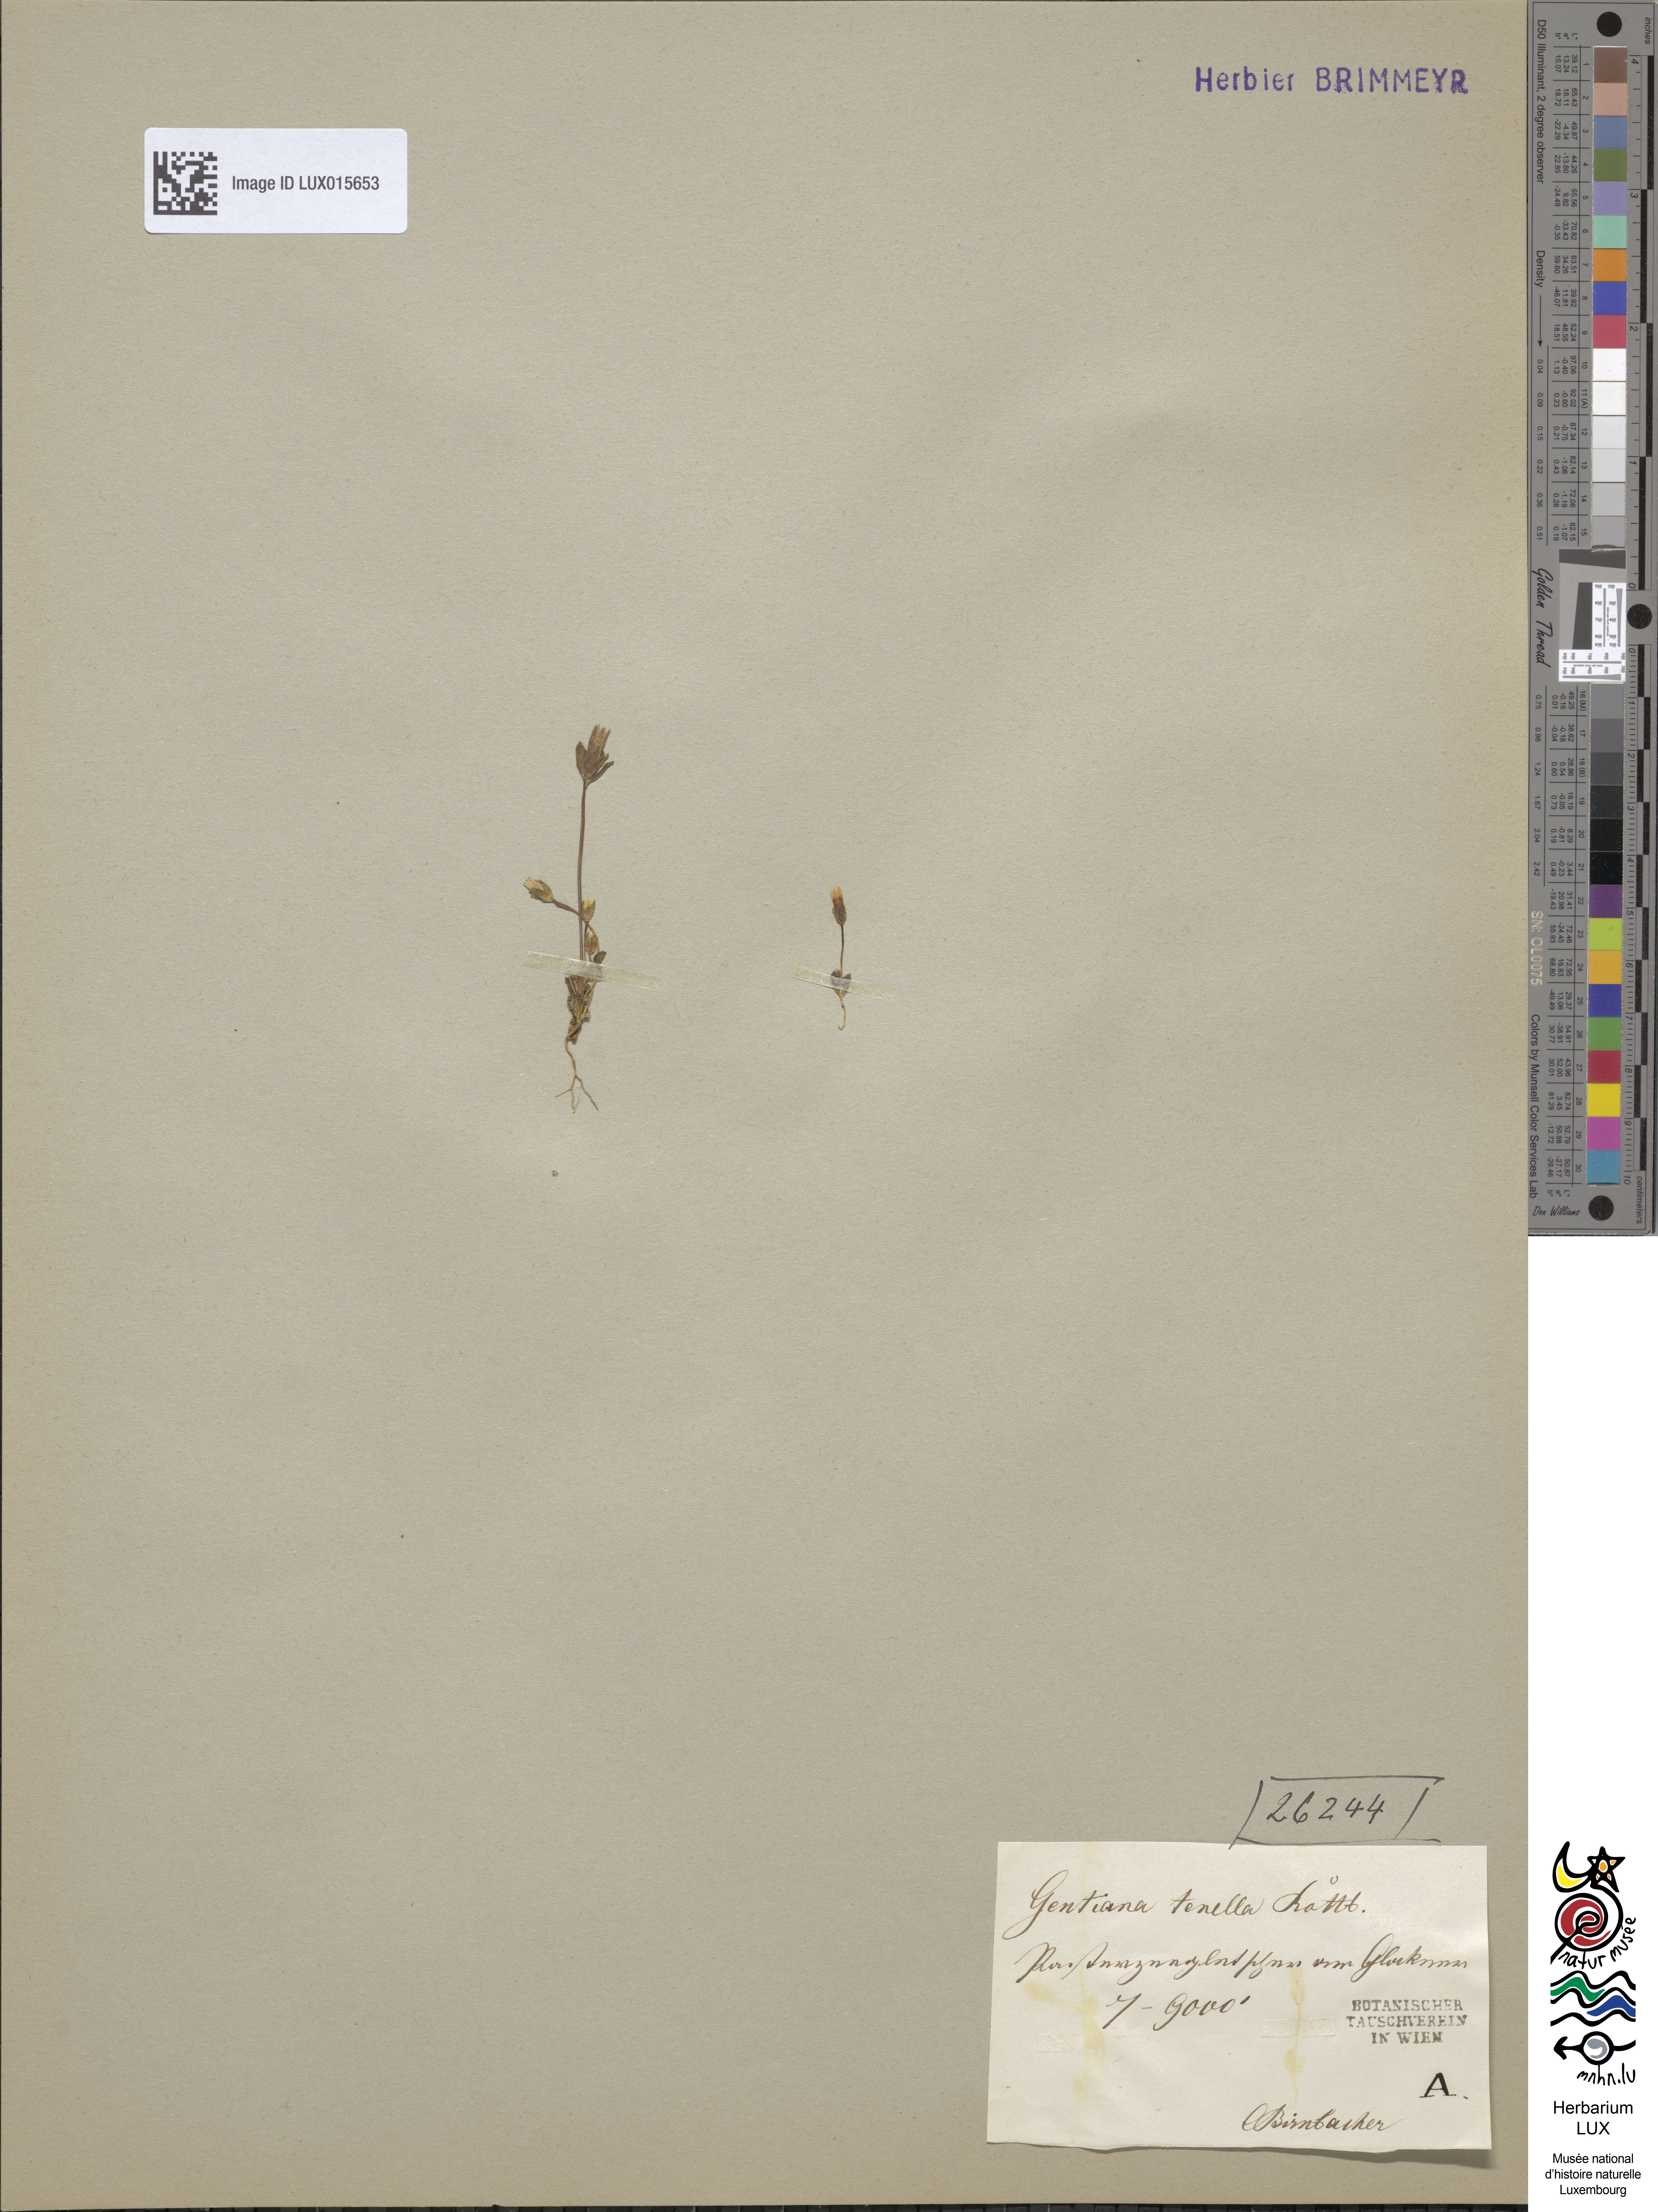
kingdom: Plantae
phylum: Tracheophyta
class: Magnoliopsida
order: Gentianales
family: Gentianaceae
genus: Comastoma
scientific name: Comastoma tenellum
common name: Dane's dwarf gentian
